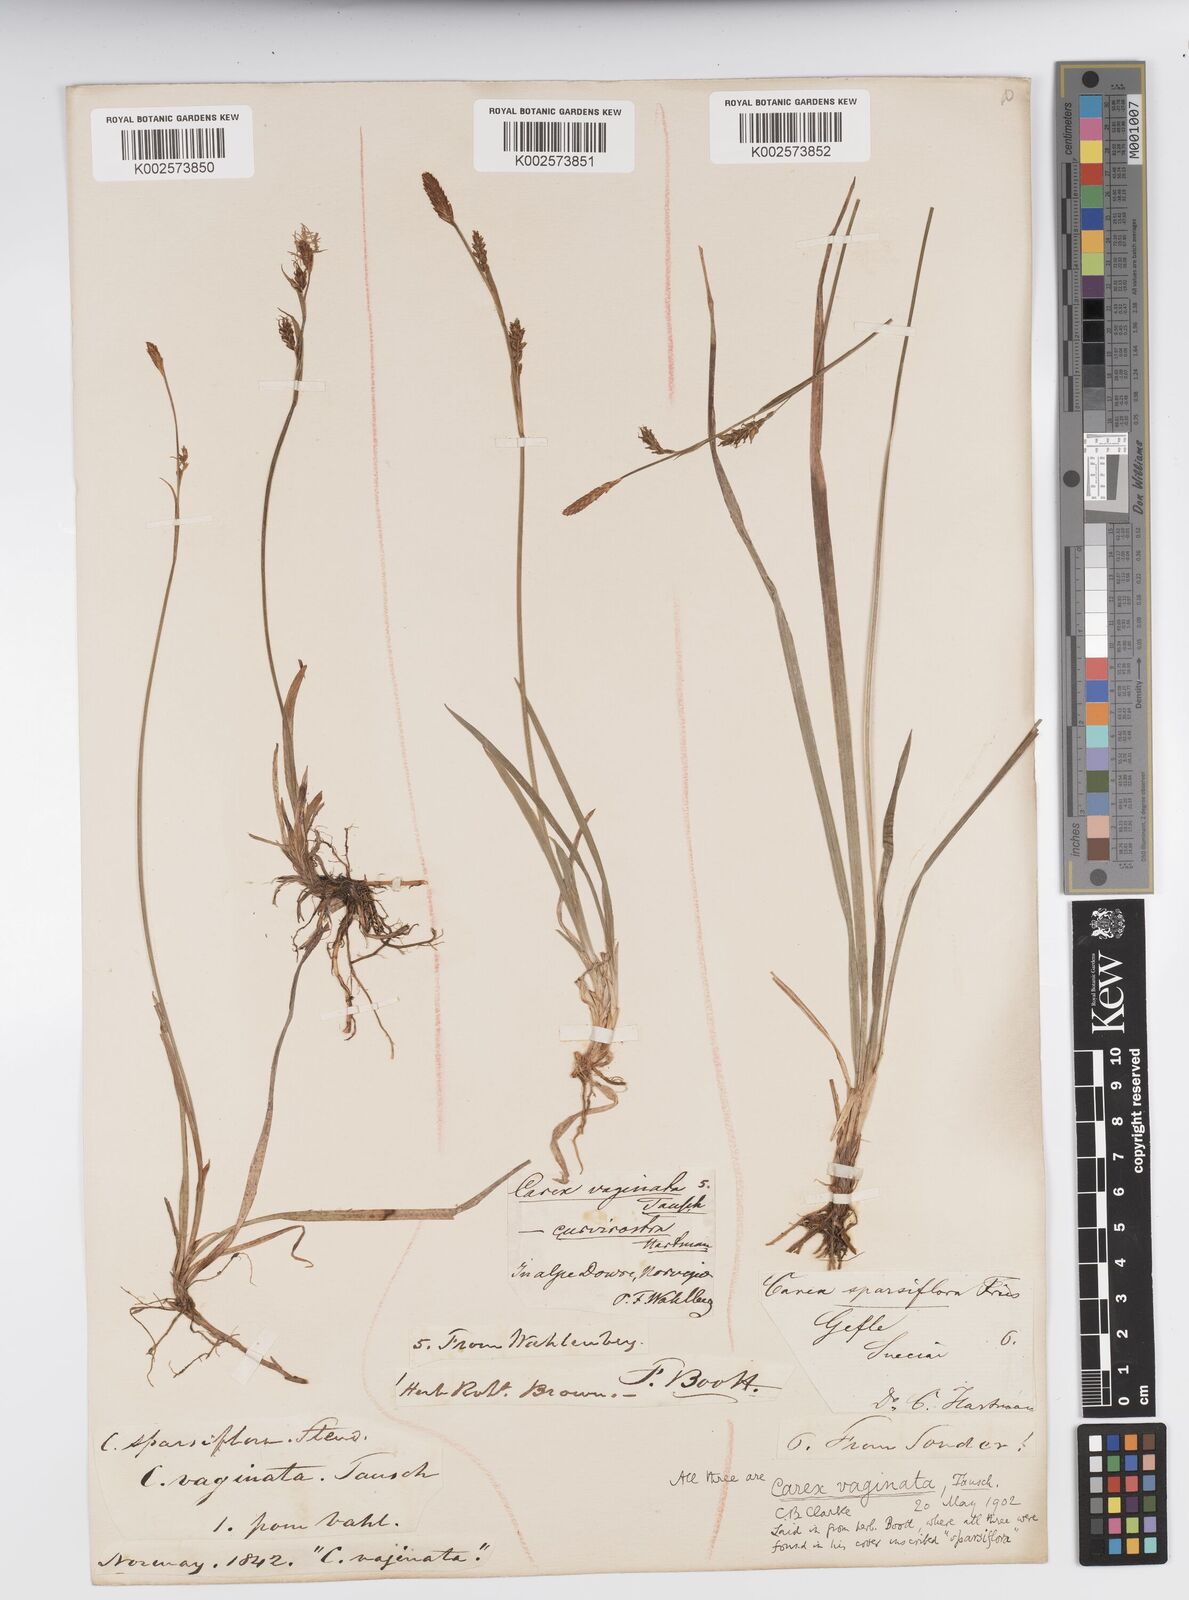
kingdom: Plantae
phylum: Tracheophyta
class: Liliopsida
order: Poales
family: Cyperaceae
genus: Carex
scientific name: Carex vaginata
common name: Sheathed sedge
